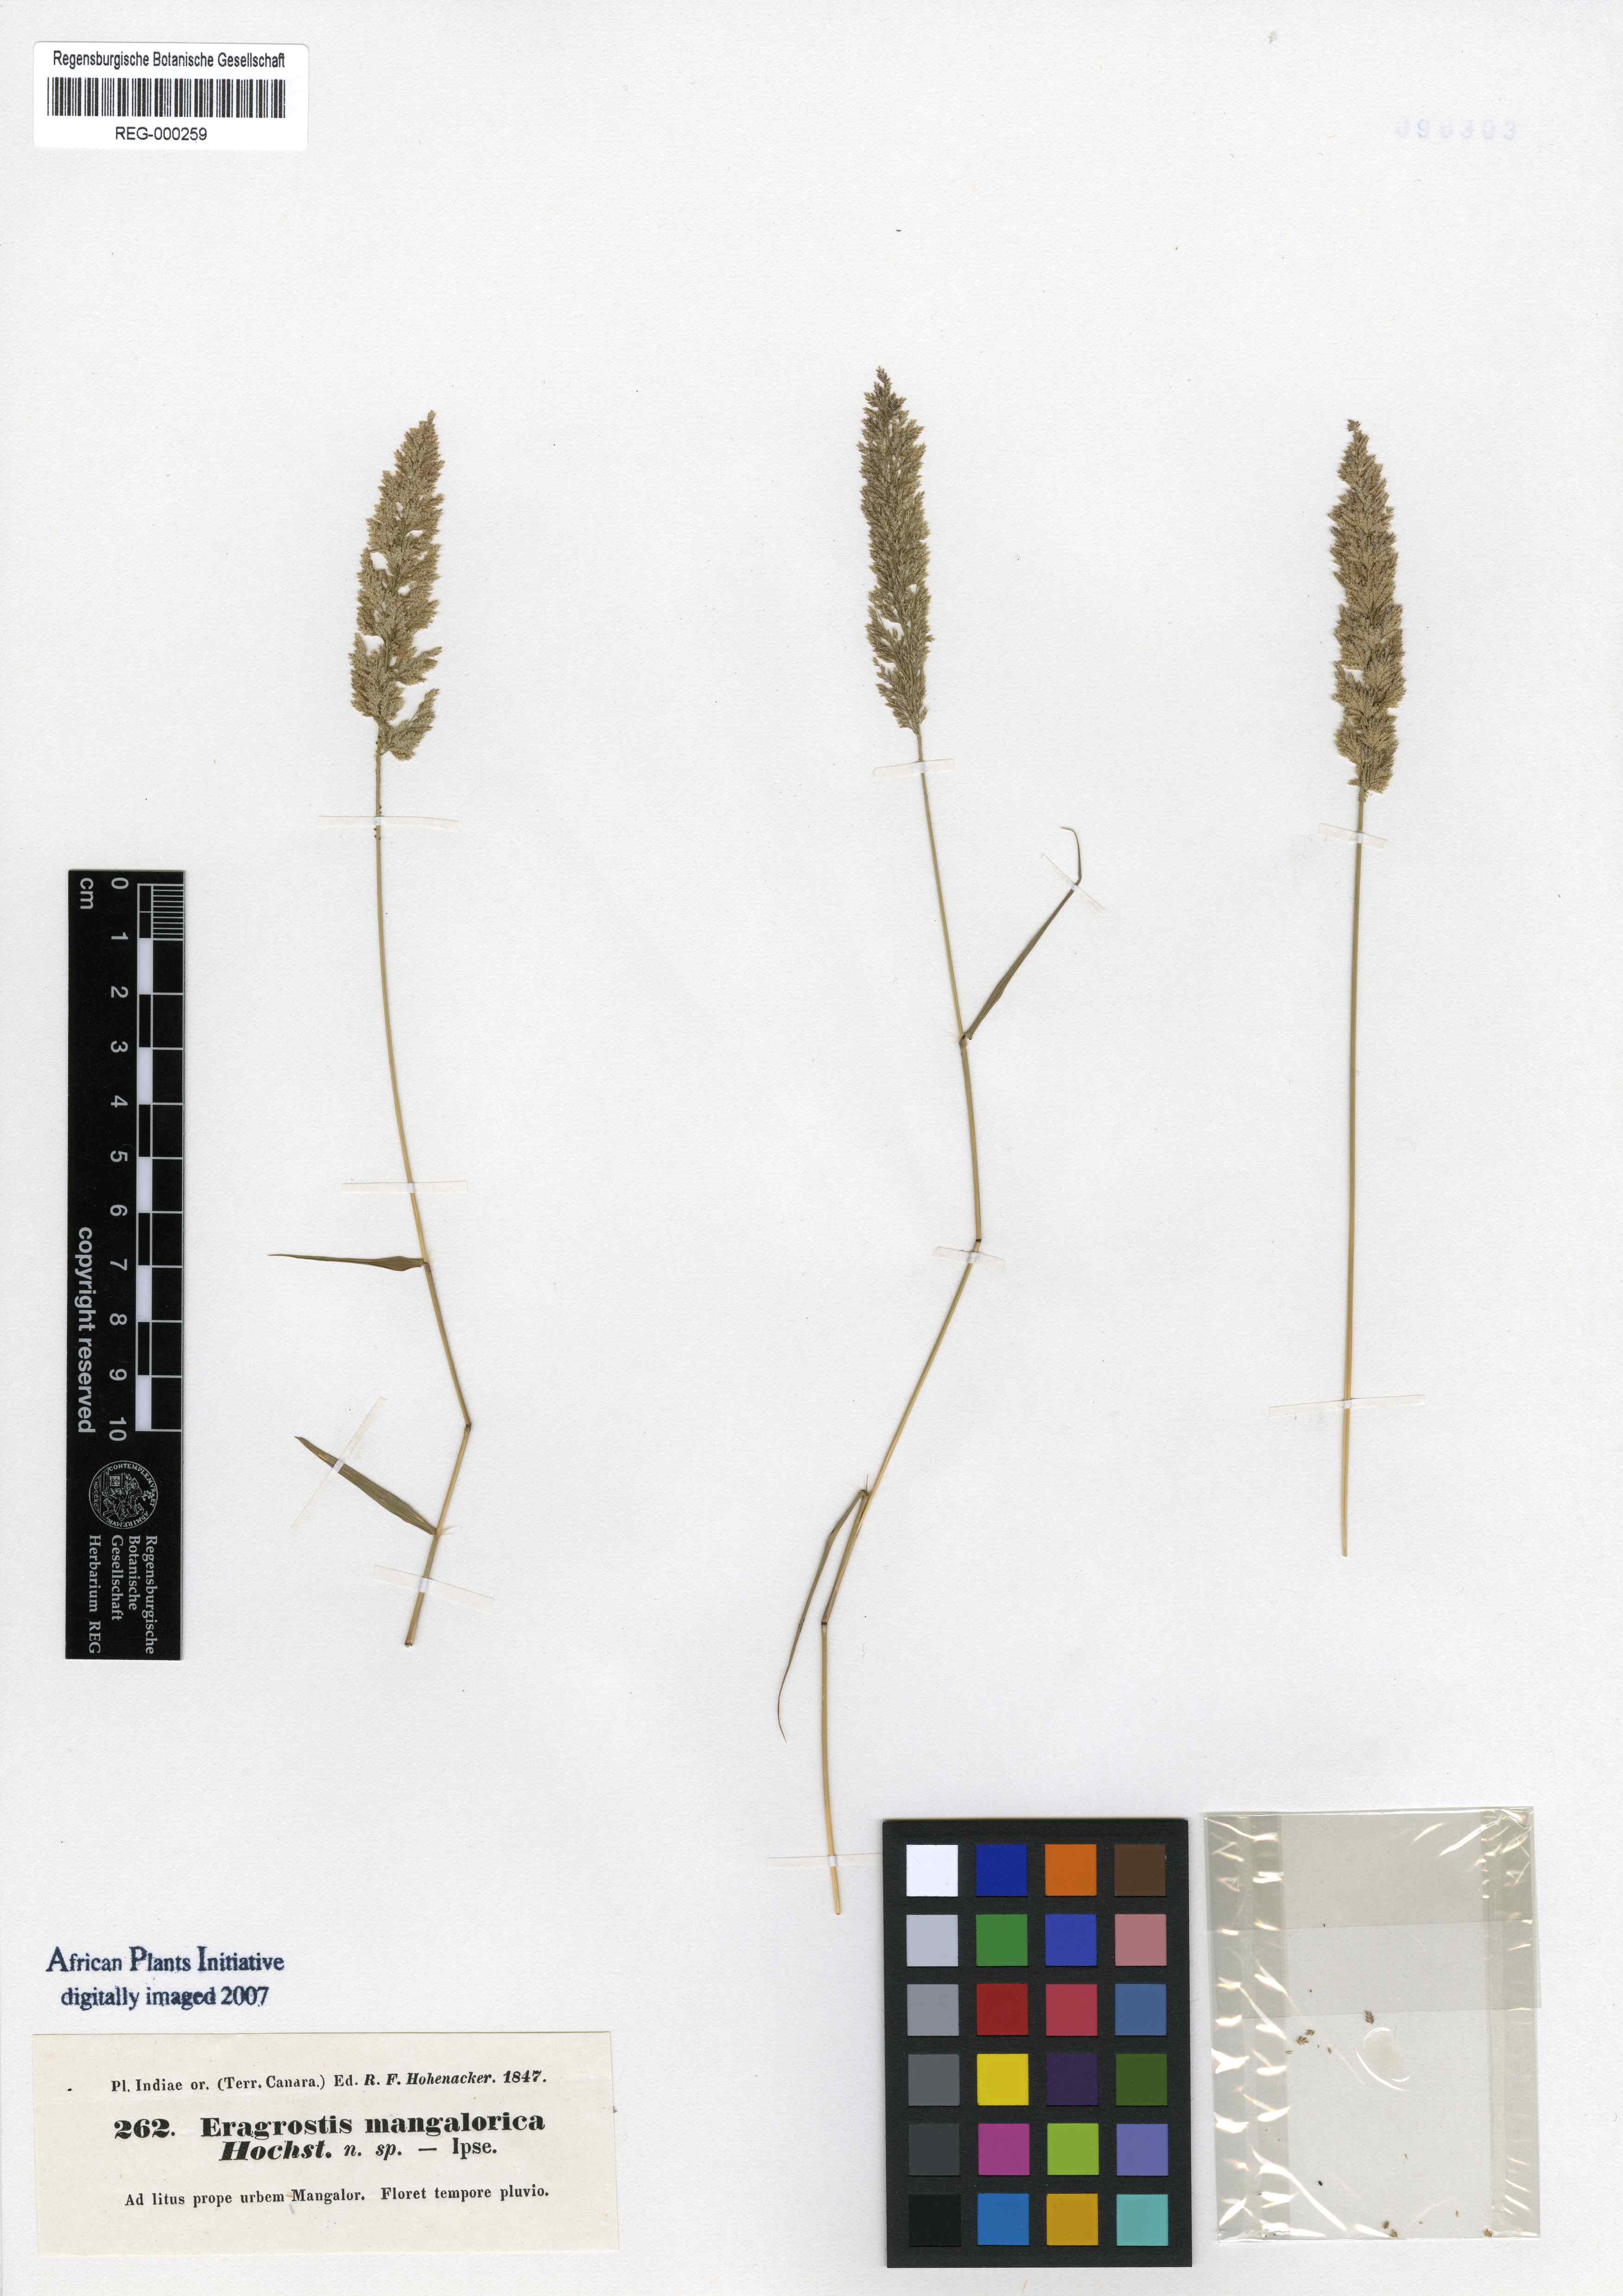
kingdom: Plantae
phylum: Tracheophyta
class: Liliopsida
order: Poales
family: Poaceae
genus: Eragrostis
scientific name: Eragrostis viscosa
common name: Sticky love grass
